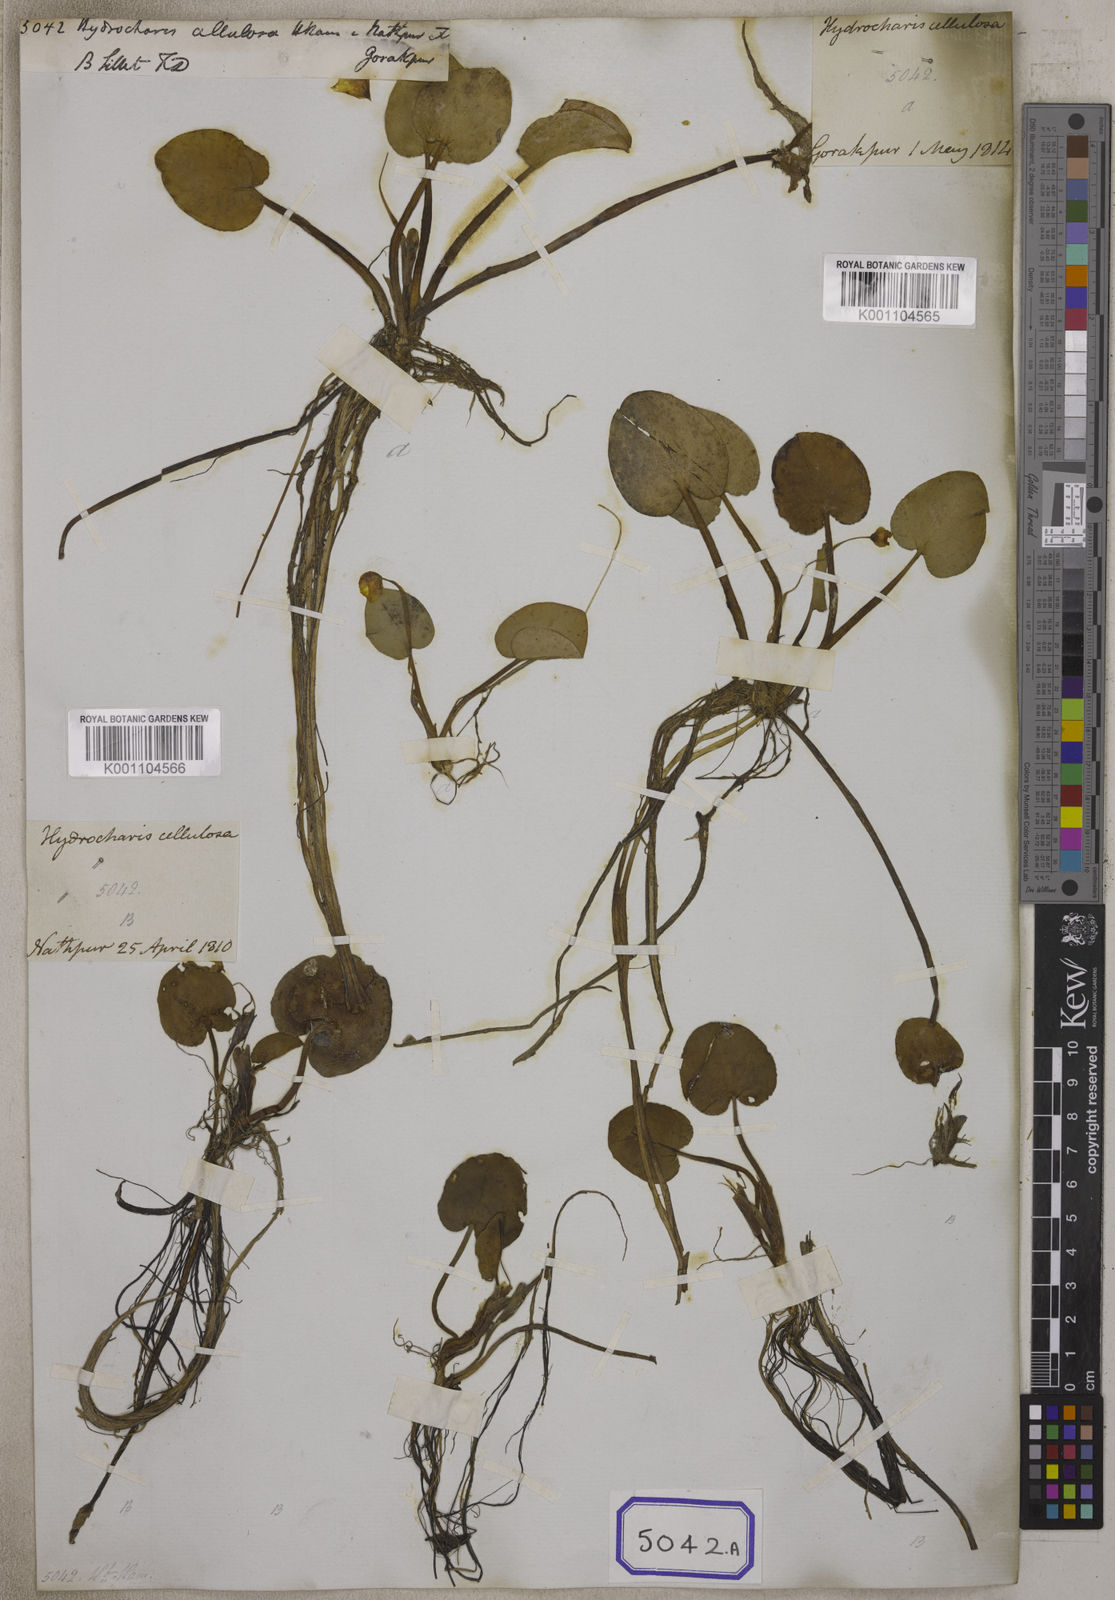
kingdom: Plantae
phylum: Tracheophyta
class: Liliopsida
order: Alismatales
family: Hydrocharitaceae
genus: Hydrocharis
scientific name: Hydrocharis
